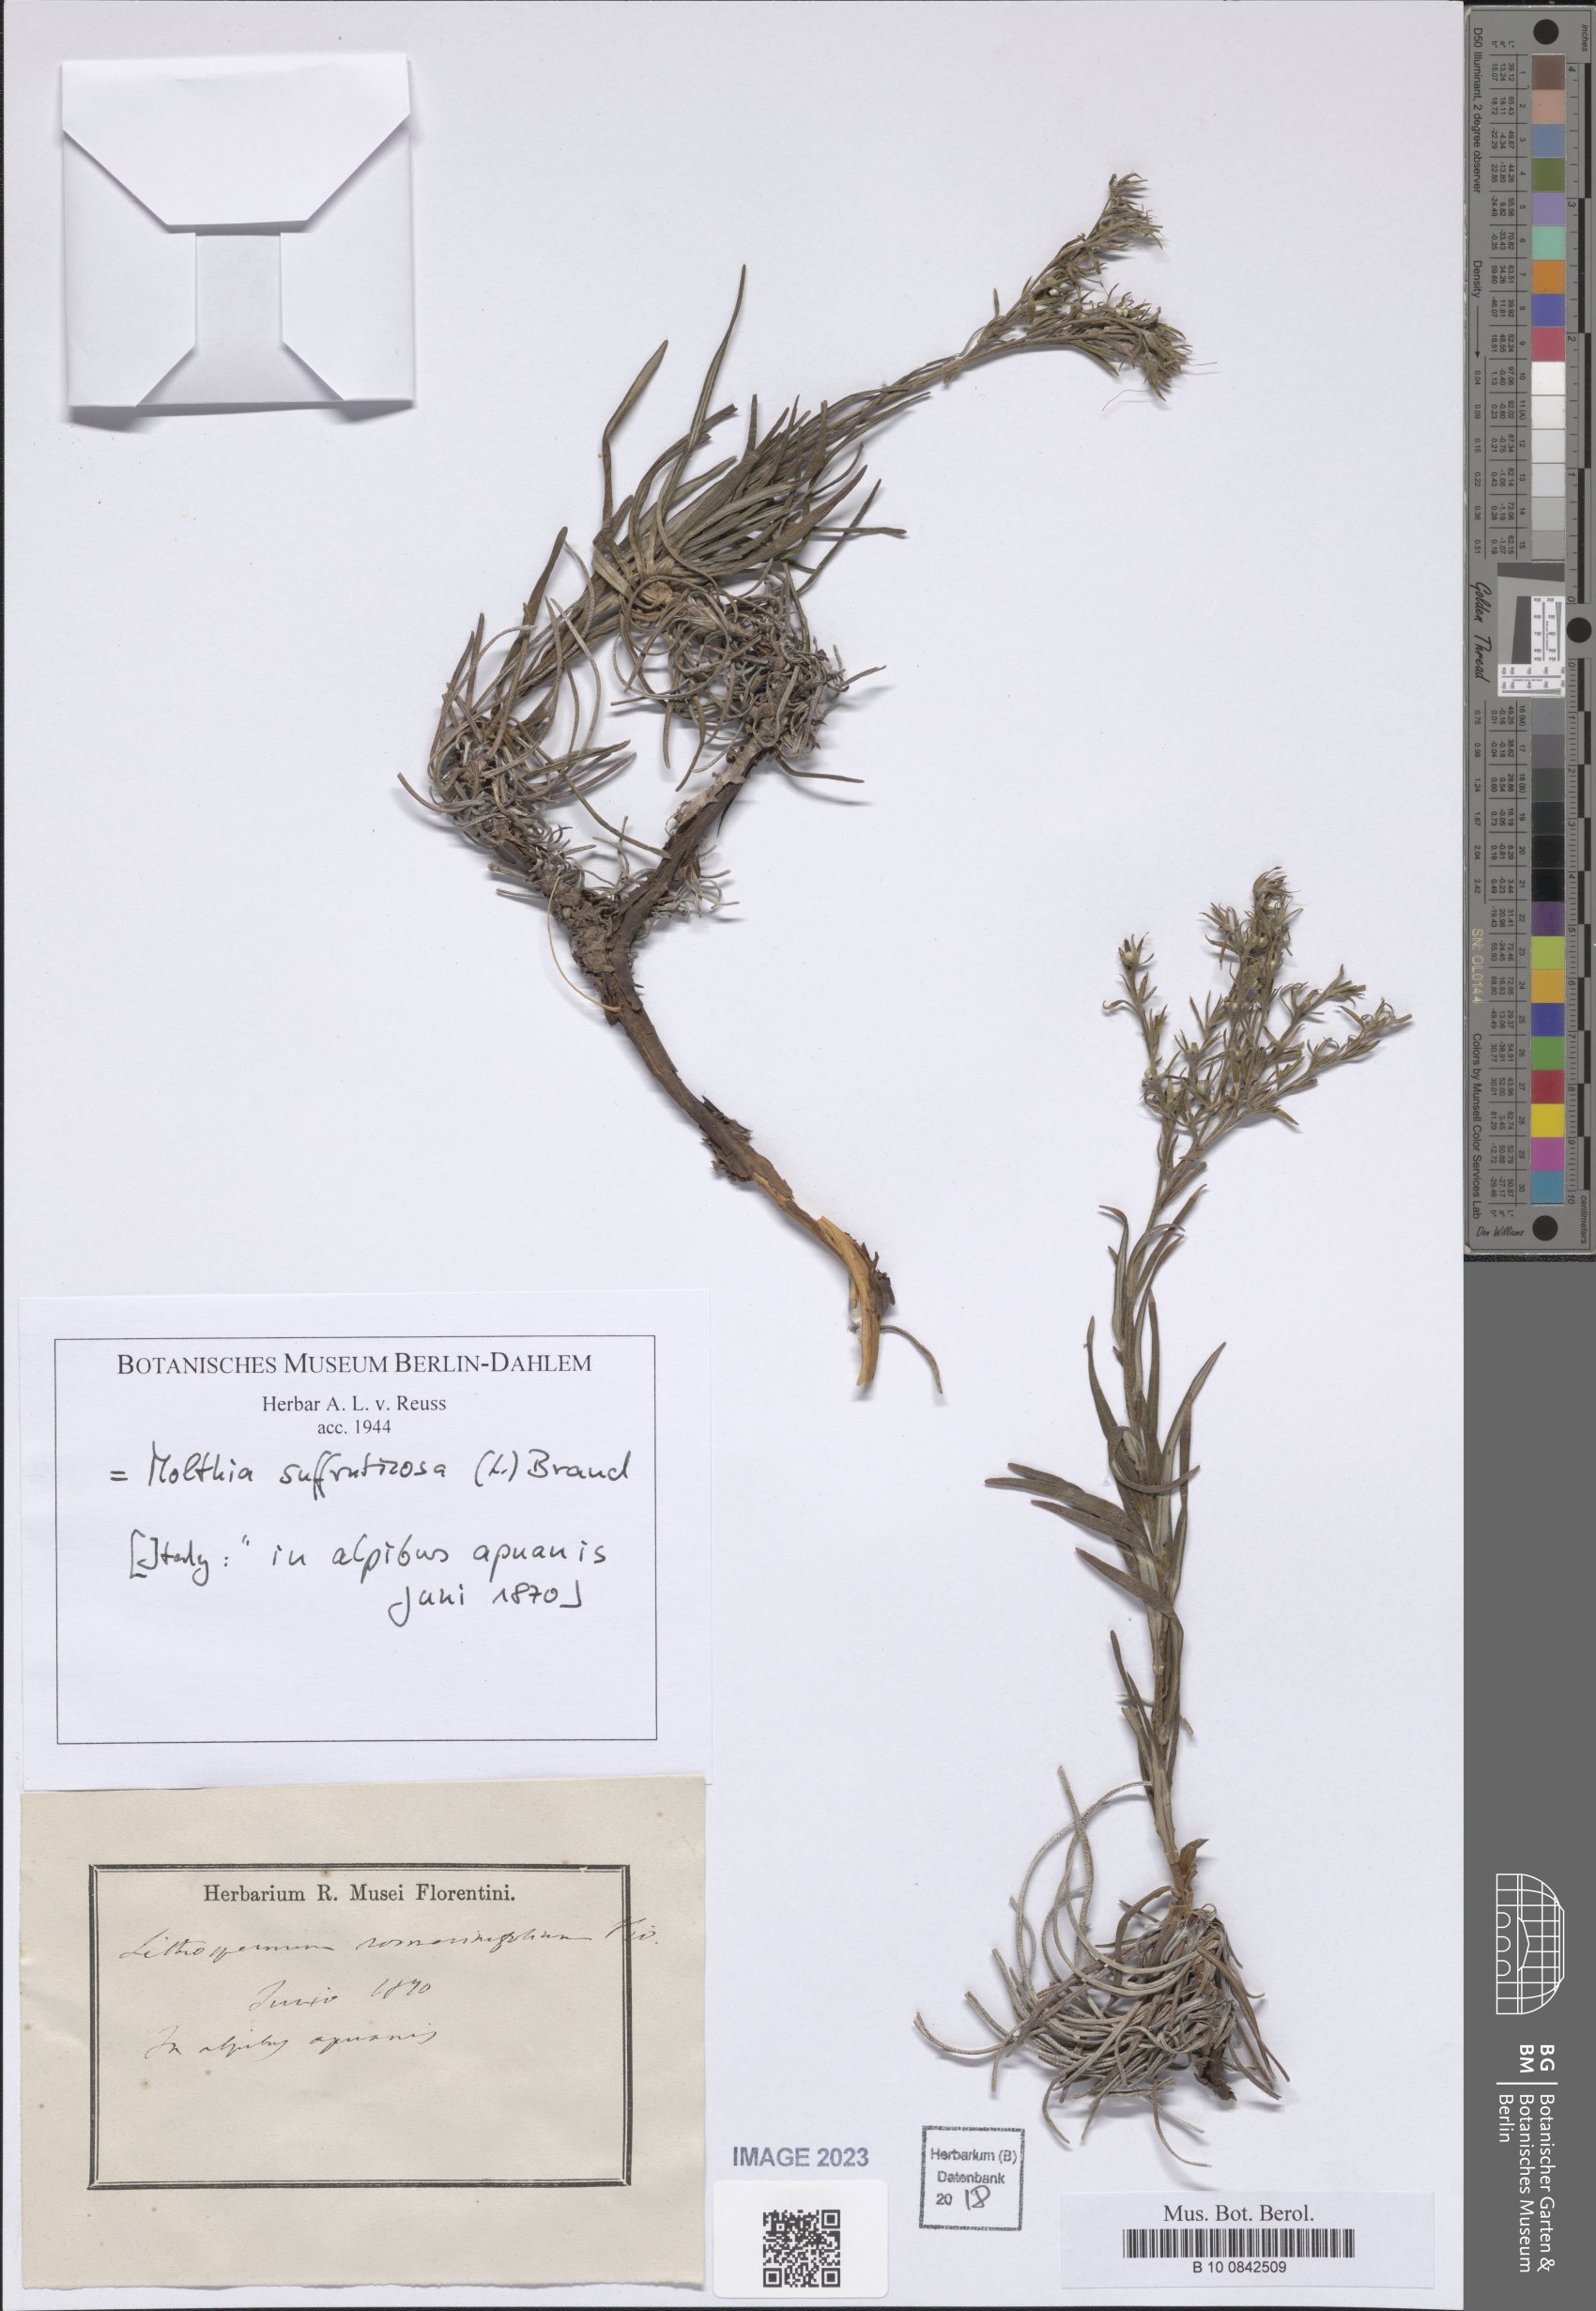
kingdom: Plantae
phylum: Tracheophyta
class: Magnoliopsida
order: Boraginales
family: Boraginaceae
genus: Moltkia
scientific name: Moltkia suffruticosa
